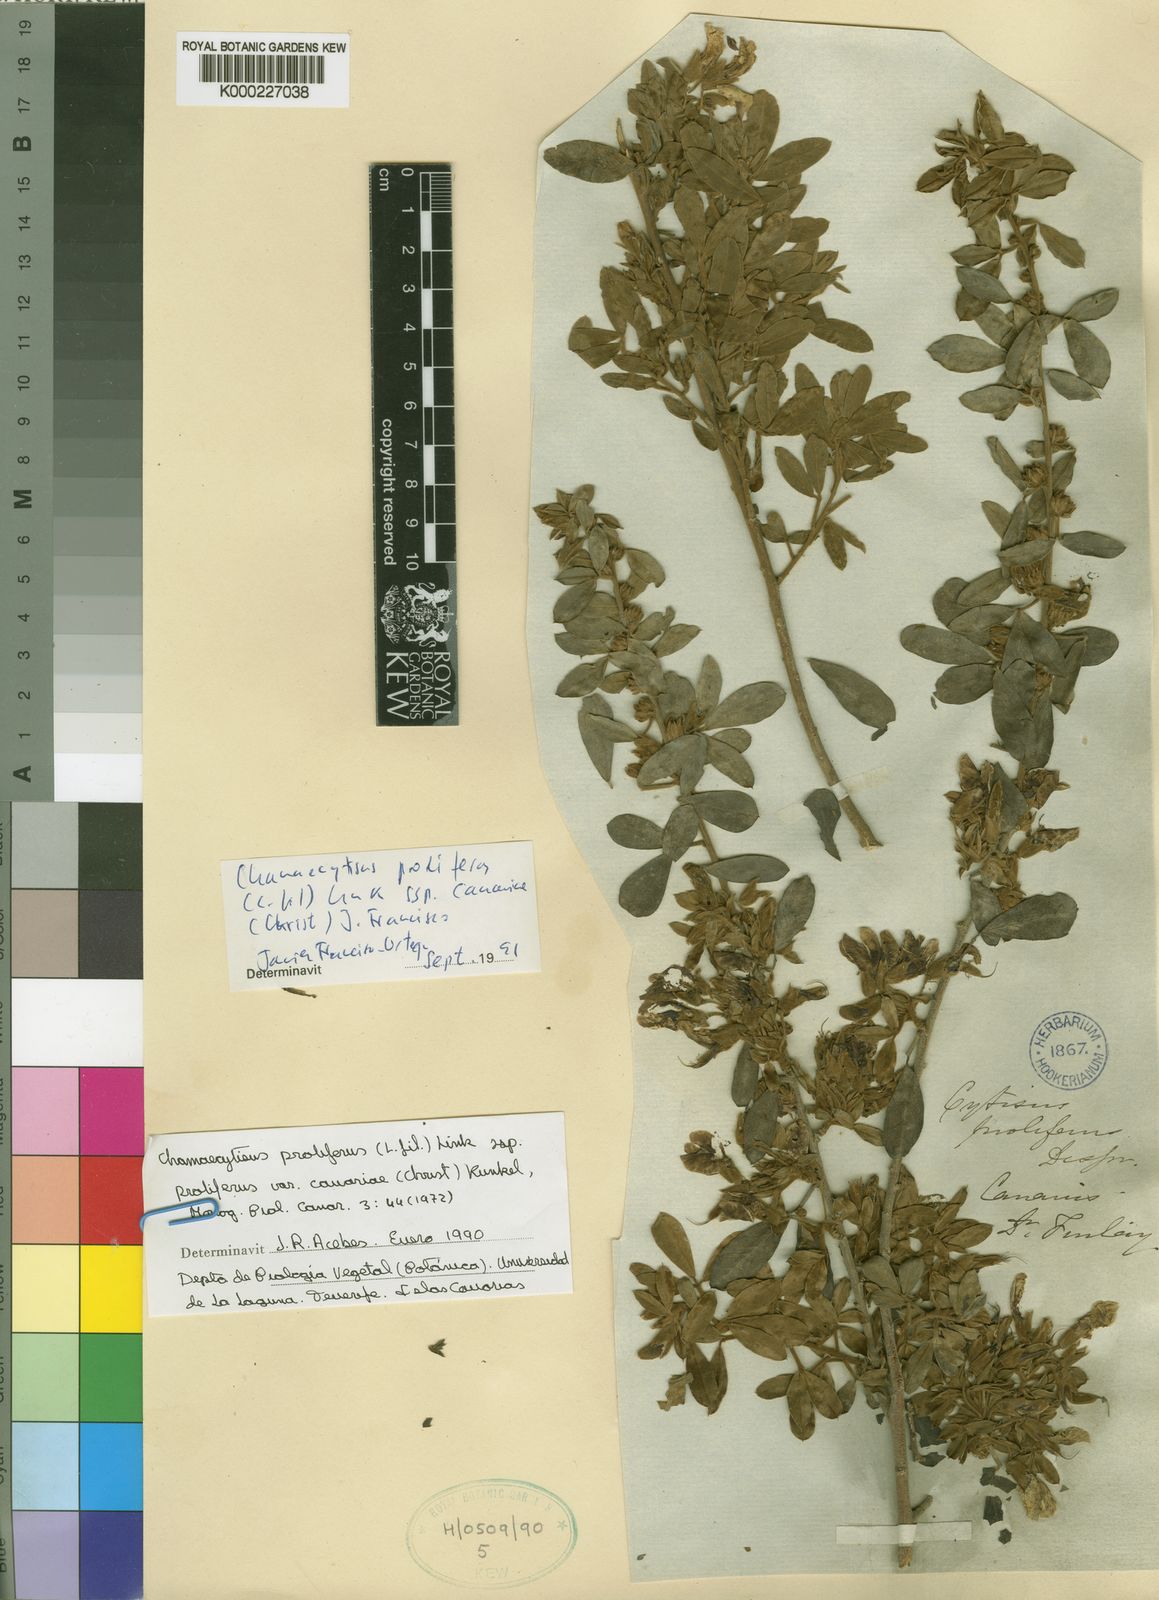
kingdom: Plantae
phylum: Tracheophyta
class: Magnoliopsida
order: Fabales
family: Fabaceae
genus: Chamaecytisus
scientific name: Chamaecytisus prolifer
